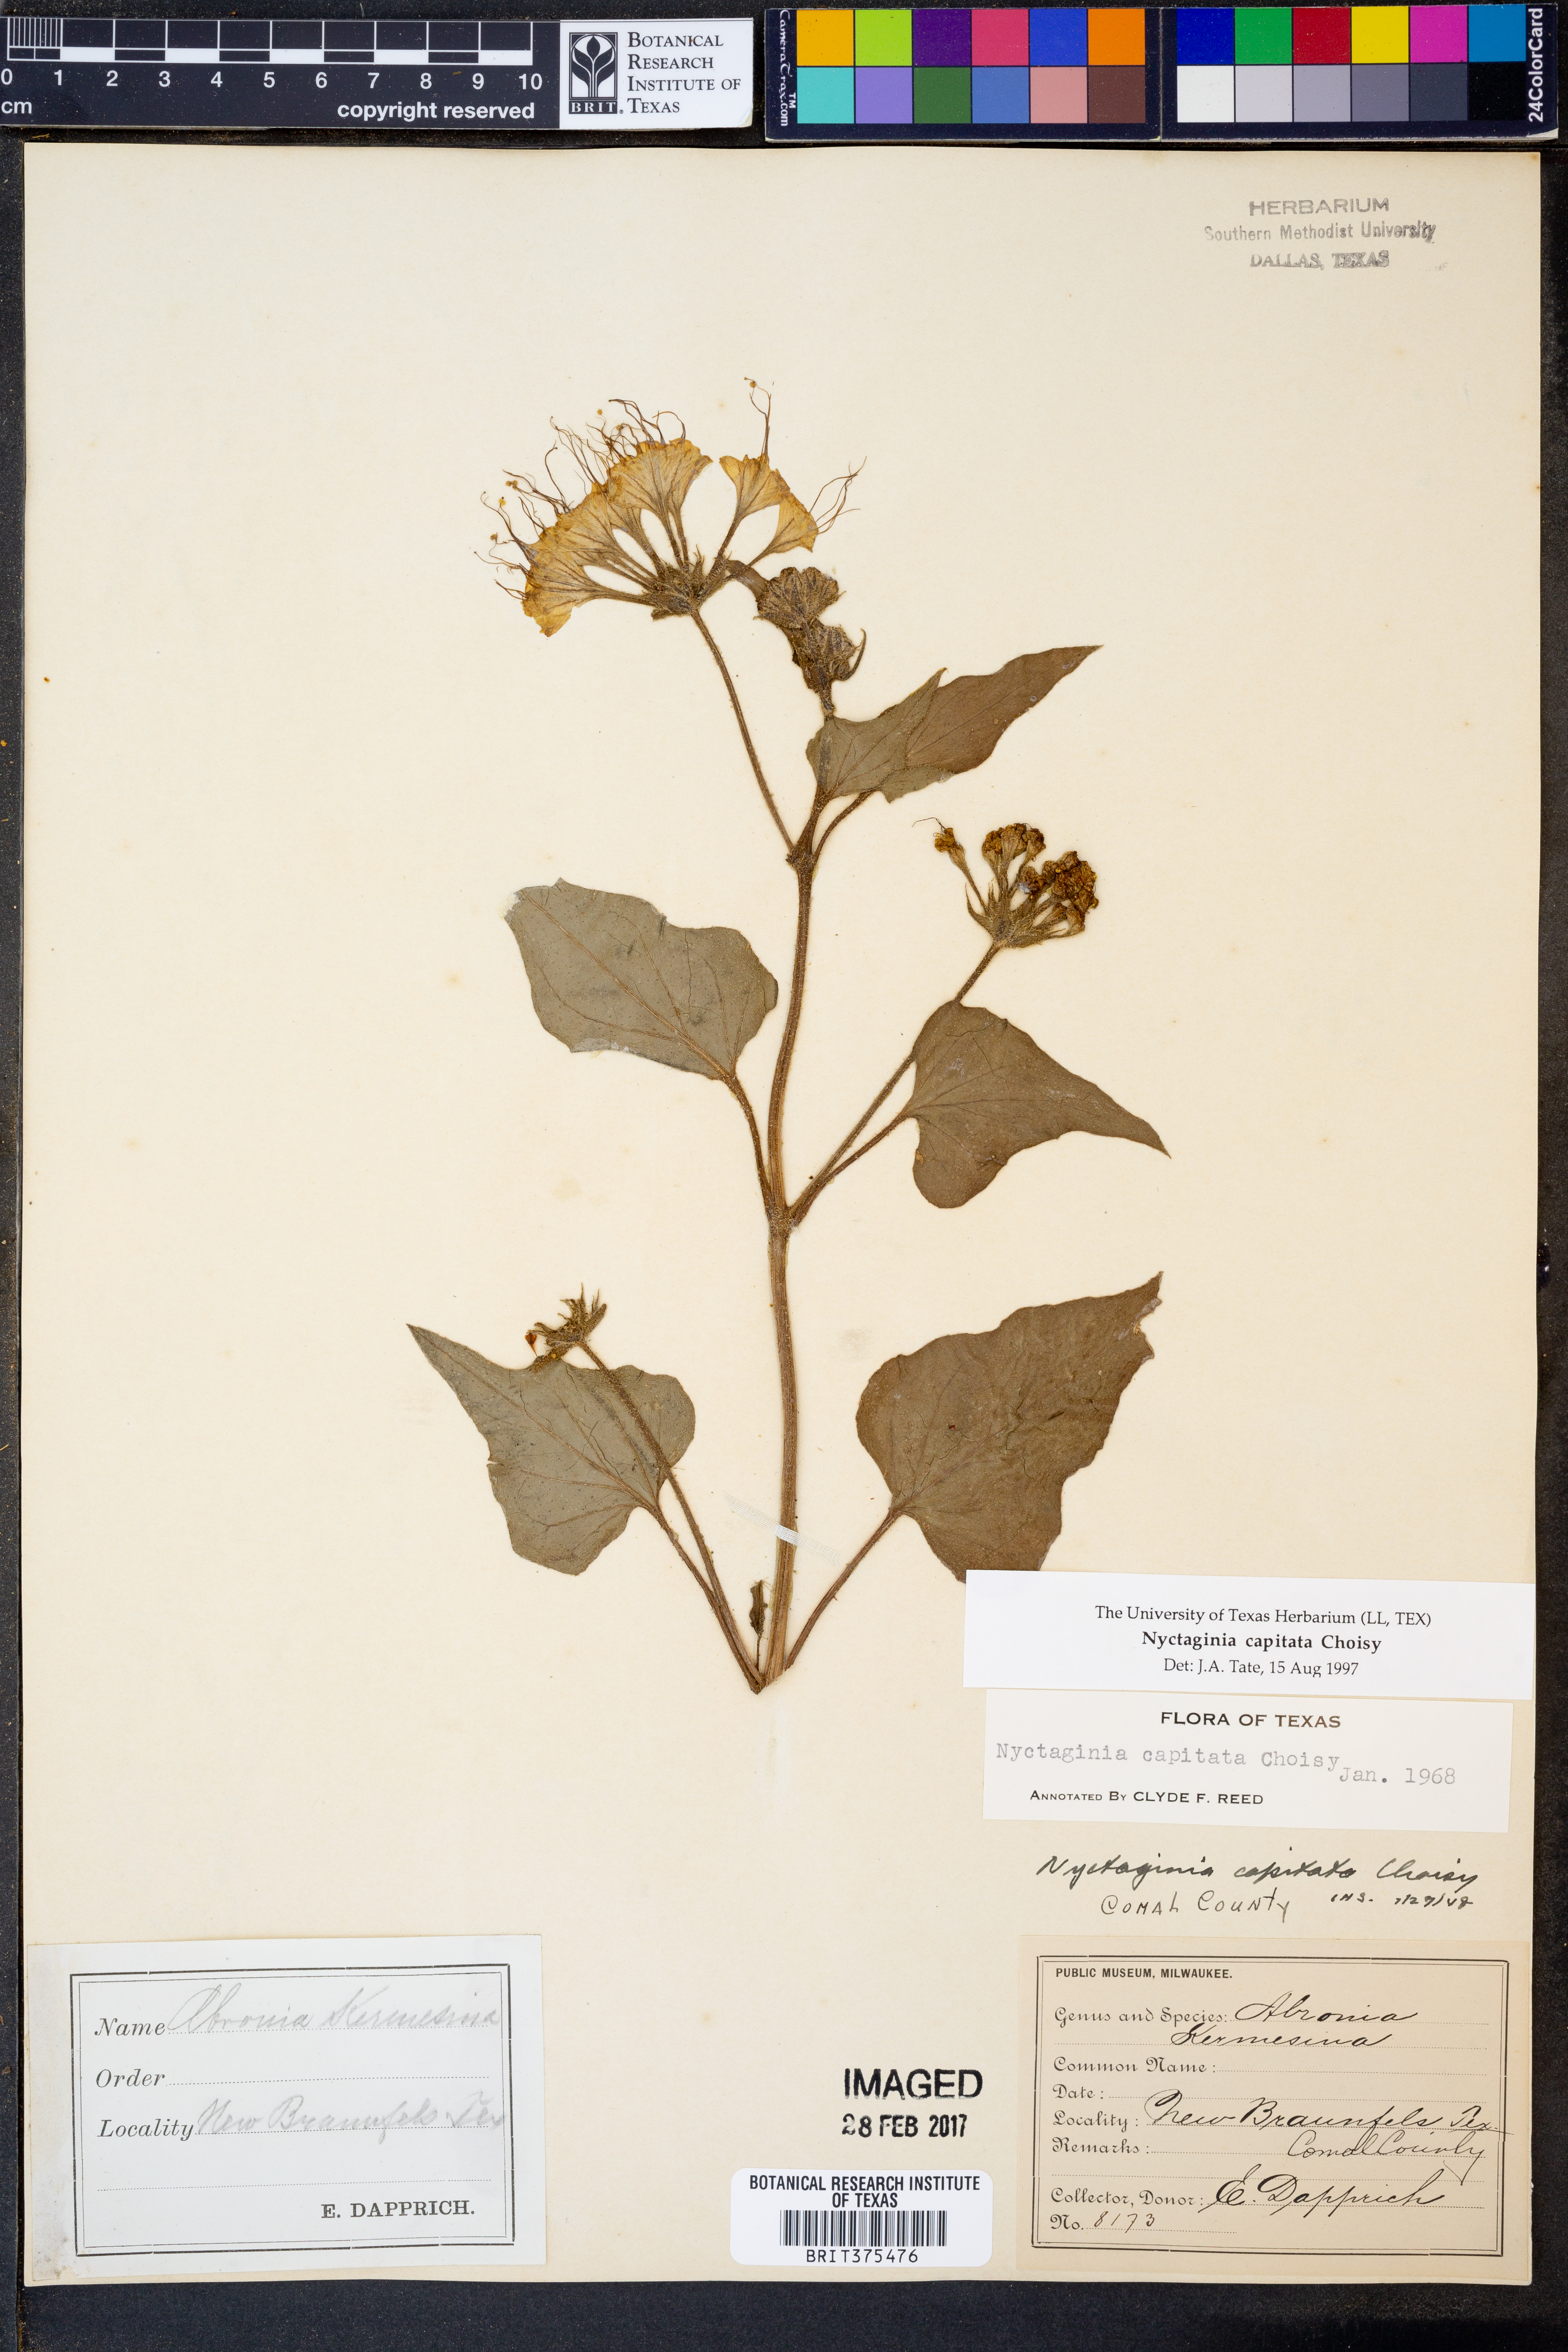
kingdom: Plantae
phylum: Tracheophyta
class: Magnoliopsida
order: Caryophyllales
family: Nyctaginaceae
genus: Nyctaginia
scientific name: Nyctaginia capitata
